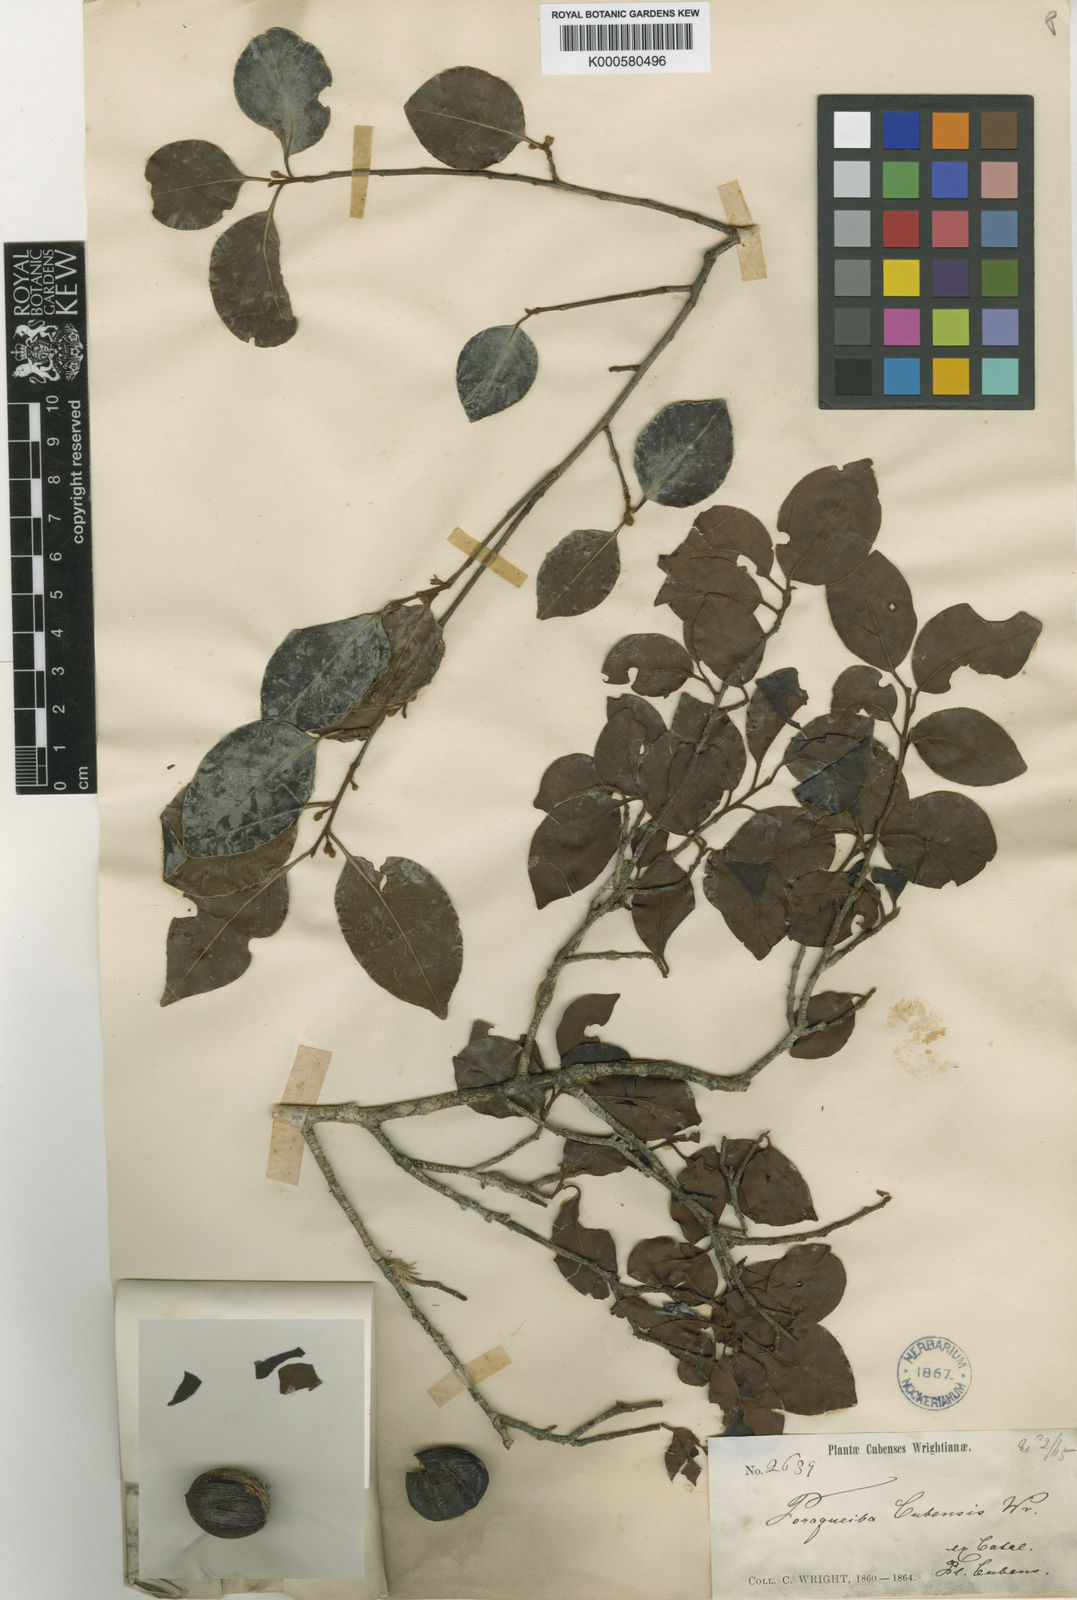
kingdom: Plantae
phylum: Tracheophyta
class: Magnoliopsida
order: Metteniusales
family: Metteniusaceae
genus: Ottoschulzia
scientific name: Ottoschulzia cubensis
